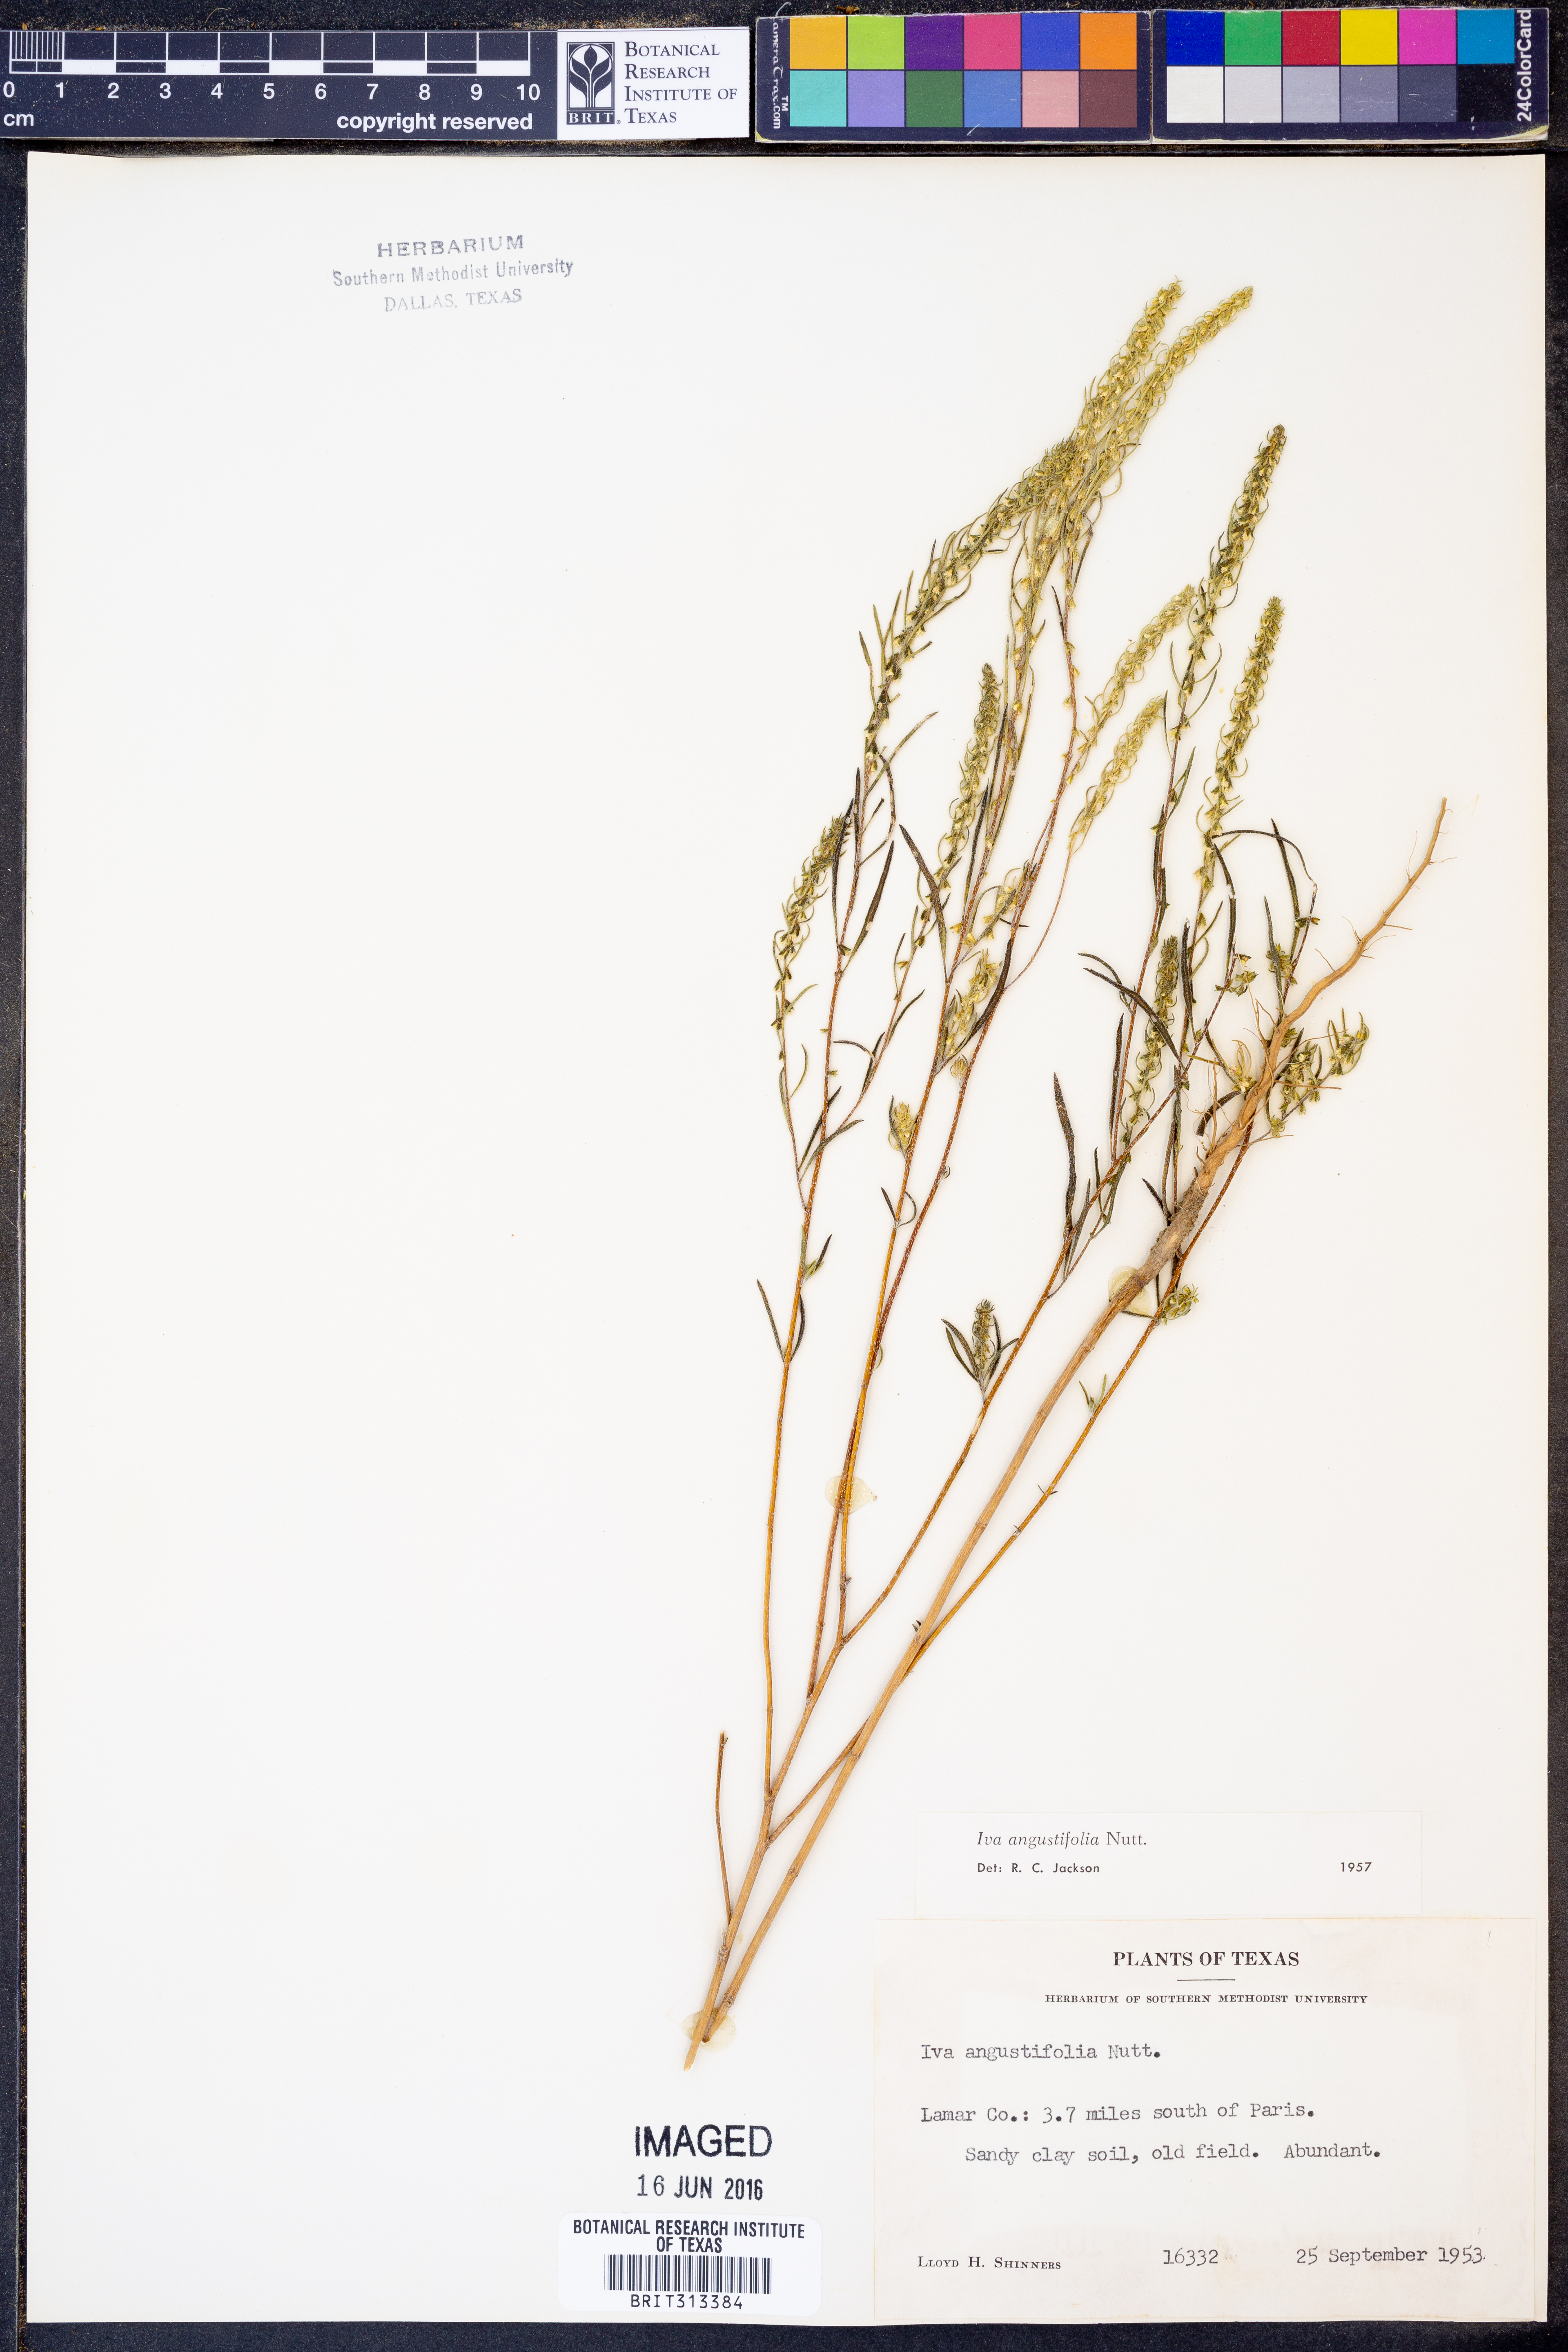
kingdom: Plantae
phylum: Tracheophyta
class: Magnoliopsida
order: Asterales
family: Asteraceae
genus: Iva
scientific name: Iva asperifolia
